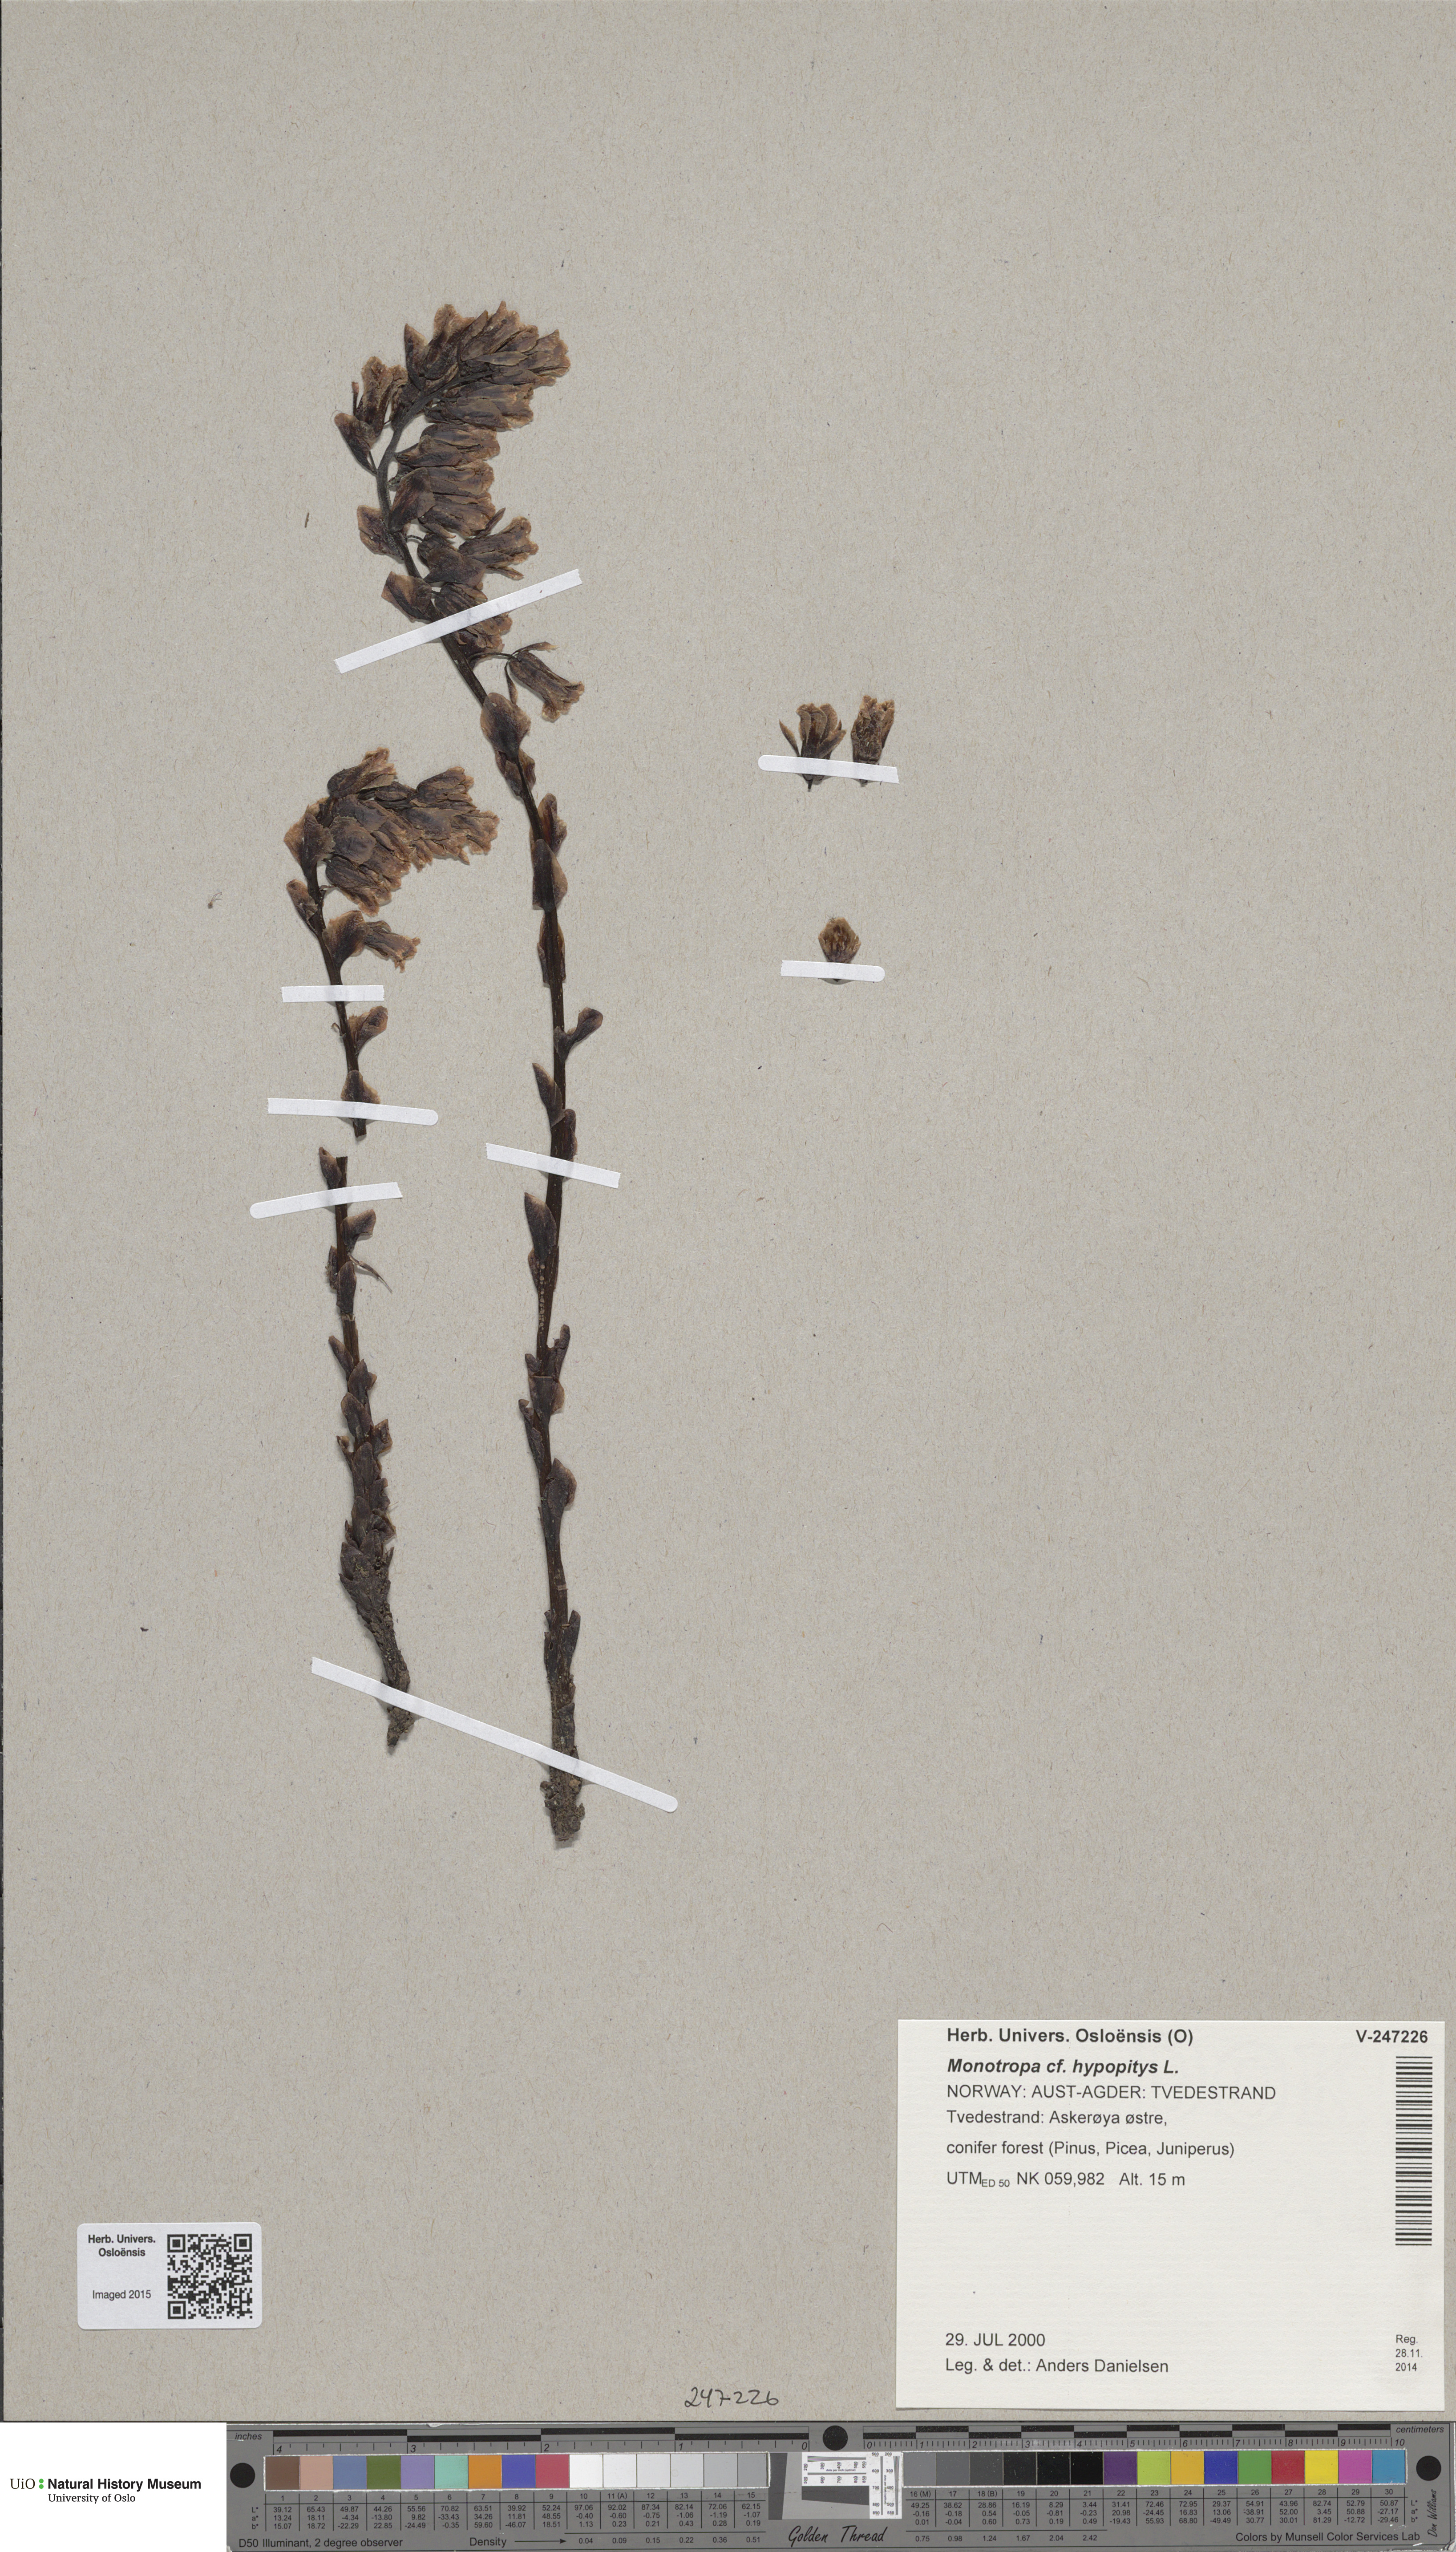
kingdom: Plantae
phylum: Tracheophyta
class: Magnoliopsida
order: Ericales
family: Ericaceae
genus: Hypopitys
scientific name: Hypopitys monotropa
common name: Yellow bird's-nest
